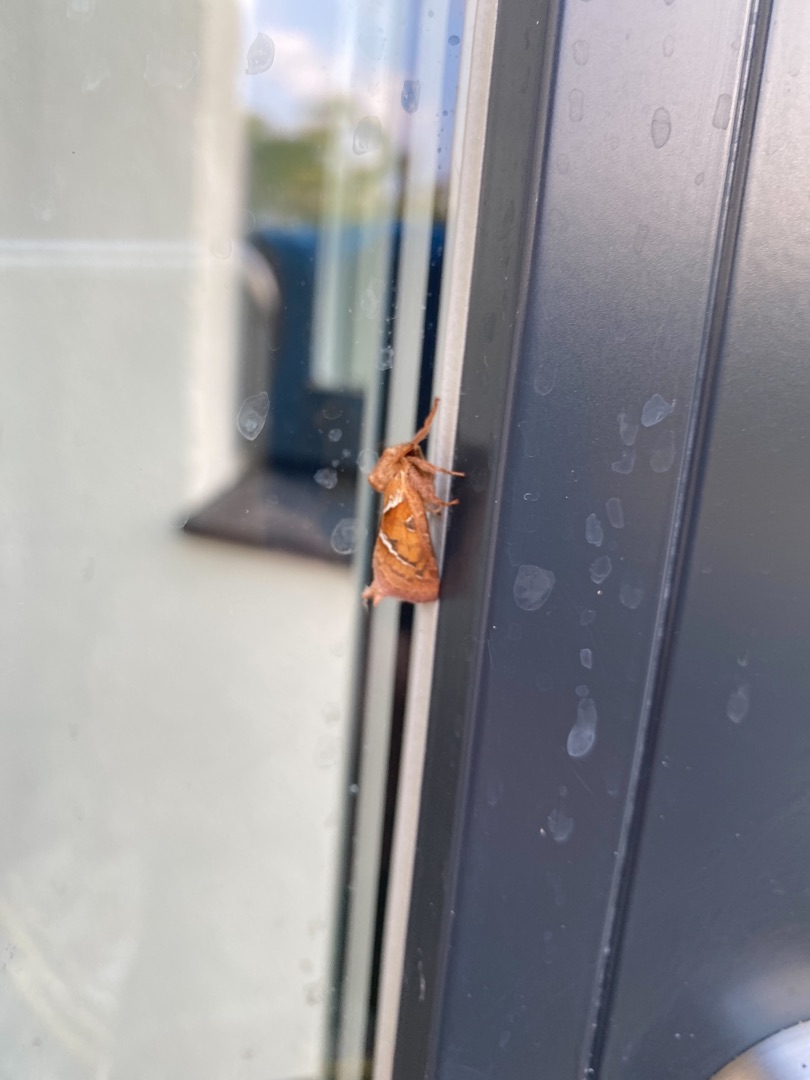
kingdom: Animalia
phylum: Arthropoda
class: Insecta
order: Lepidoptera
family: Hepialidae
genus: Triodia
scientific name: Triodia sylvina
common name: Skræpperodæder
